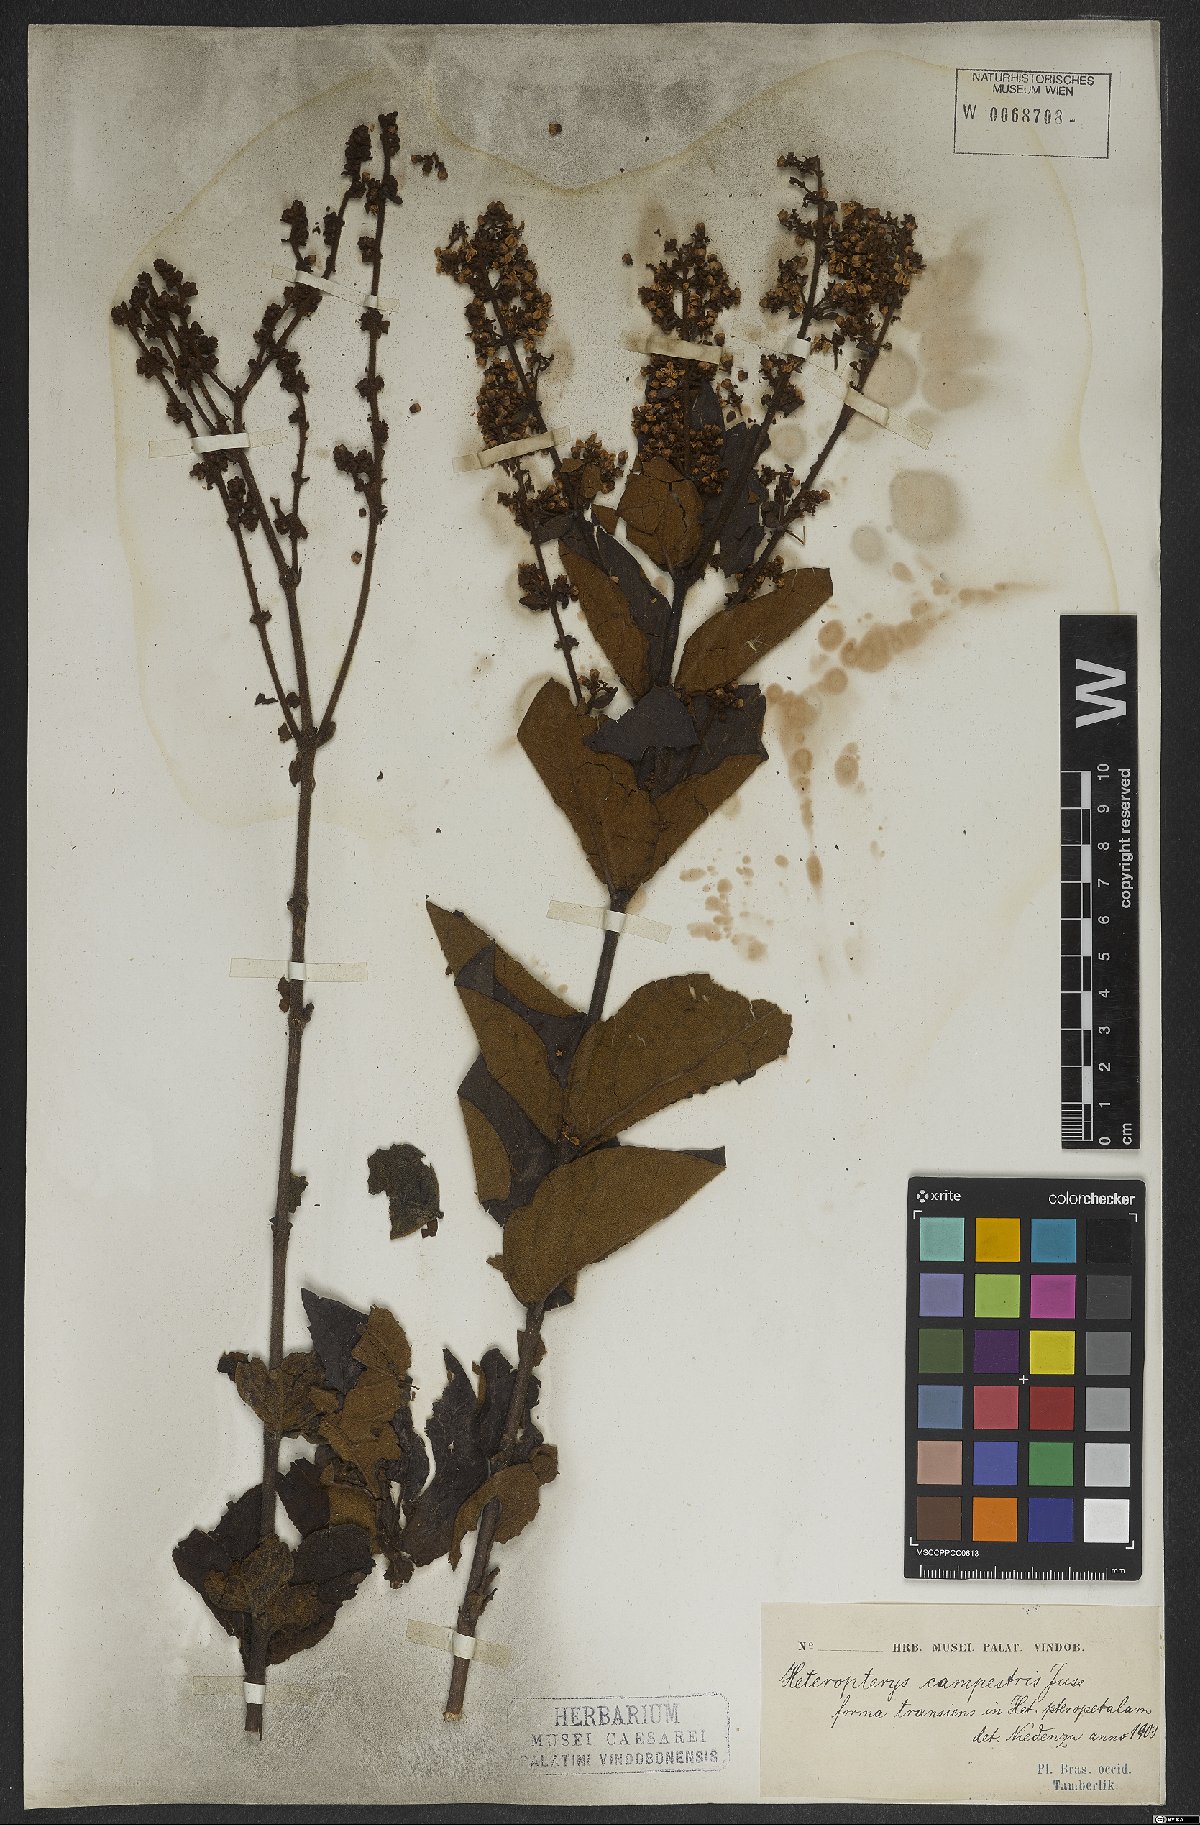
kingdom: Plantae
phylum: Tracheophyta
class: Magnoliopsida
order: Malpighiales
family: Malpighiaceae
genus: Heteropterys
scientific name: Heteropterys campestris
